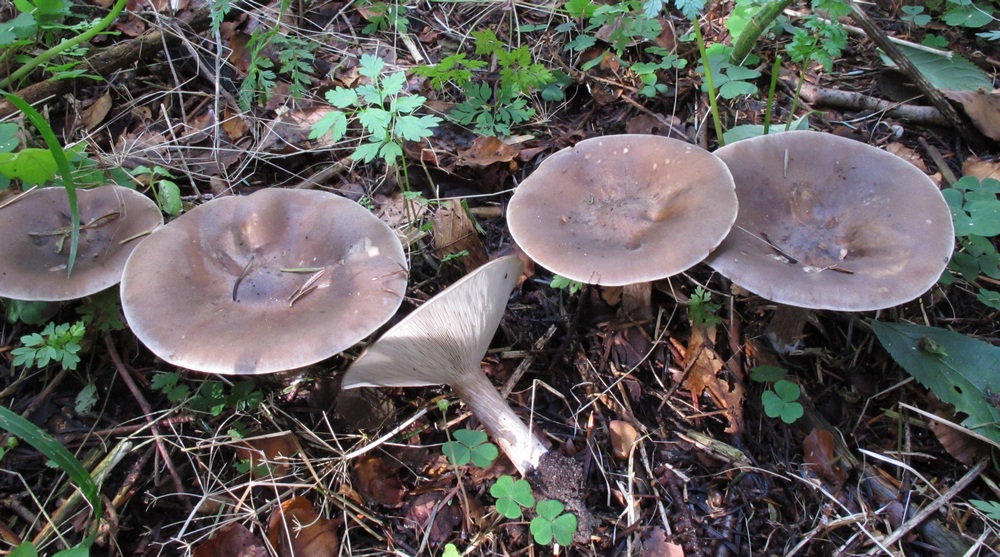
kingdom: Fungi
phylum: Basidiomycota
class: Agaricomycetes
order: Agaricales
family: Tricholomataceae
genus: Melanoleuca
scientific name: Melanoleuca grammopodia
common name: stribestokket munkehat
